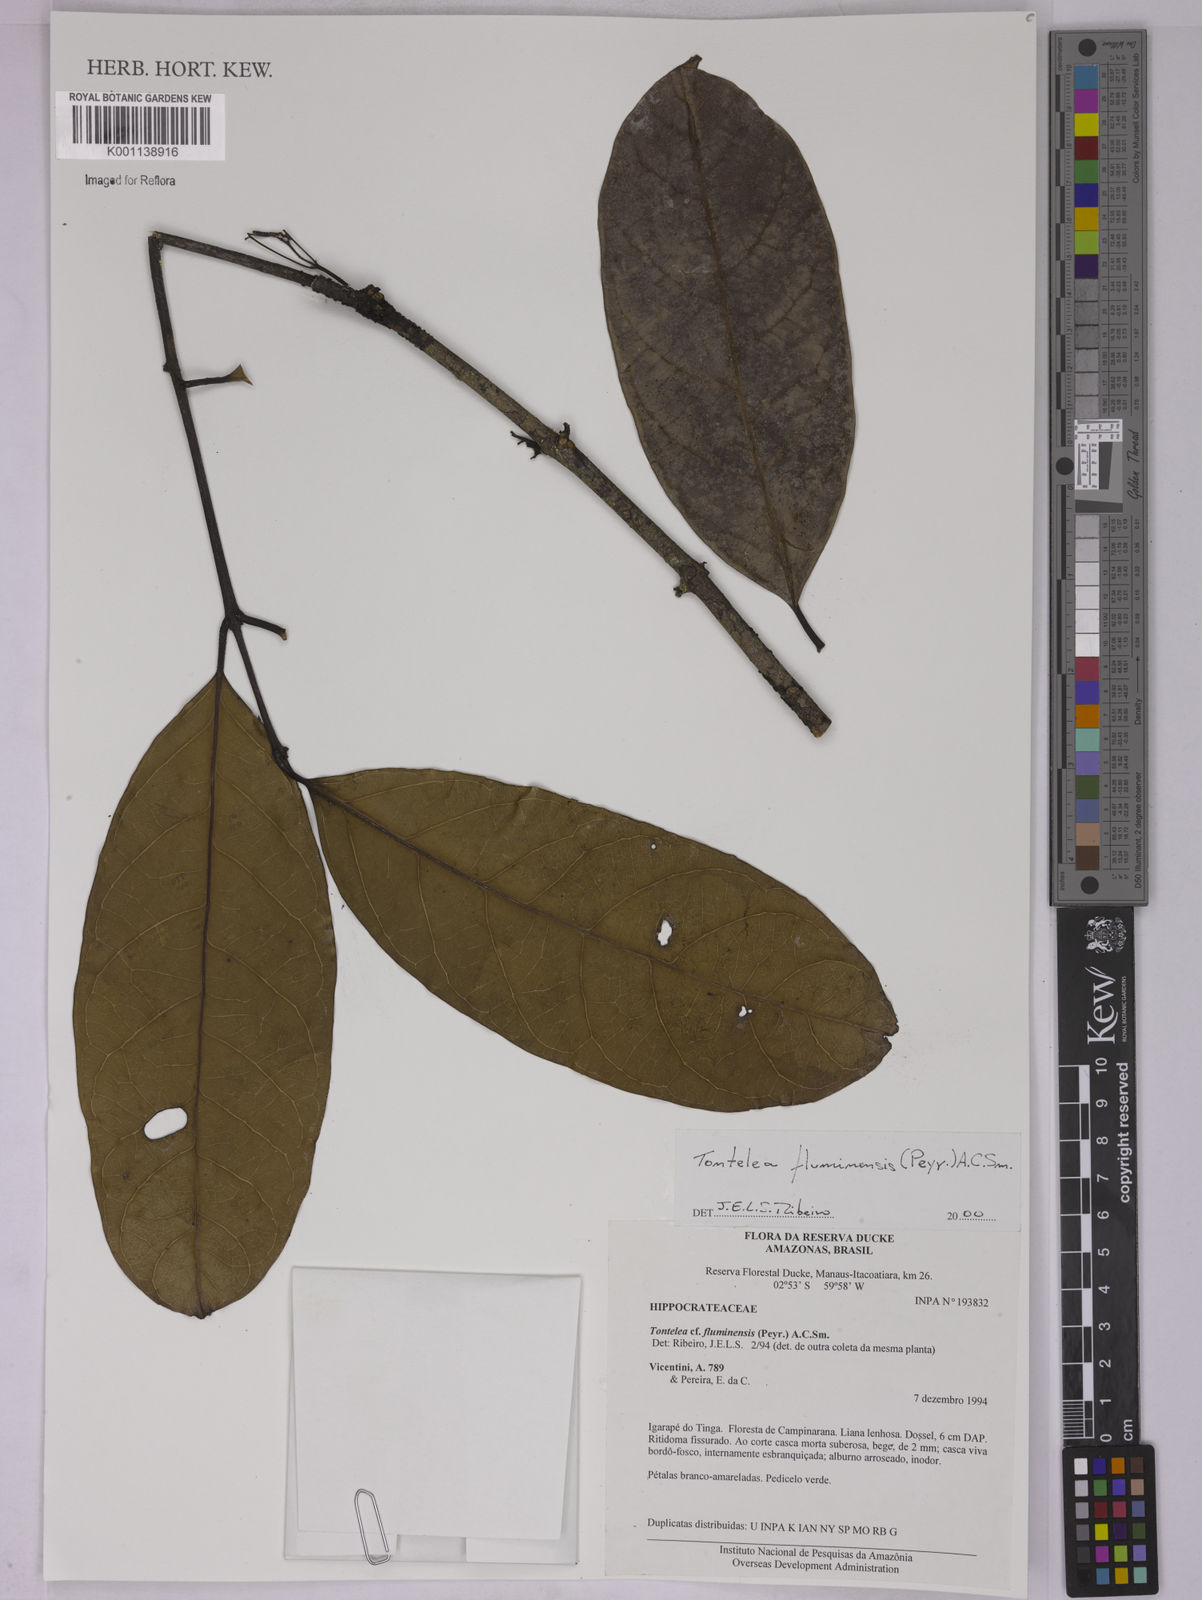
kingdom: Plantae
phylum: Tracheophyta
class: Magnoliopsida
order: Celastrales
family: Celastraceae
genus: Tontelea
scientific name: Tontelea passiflora
